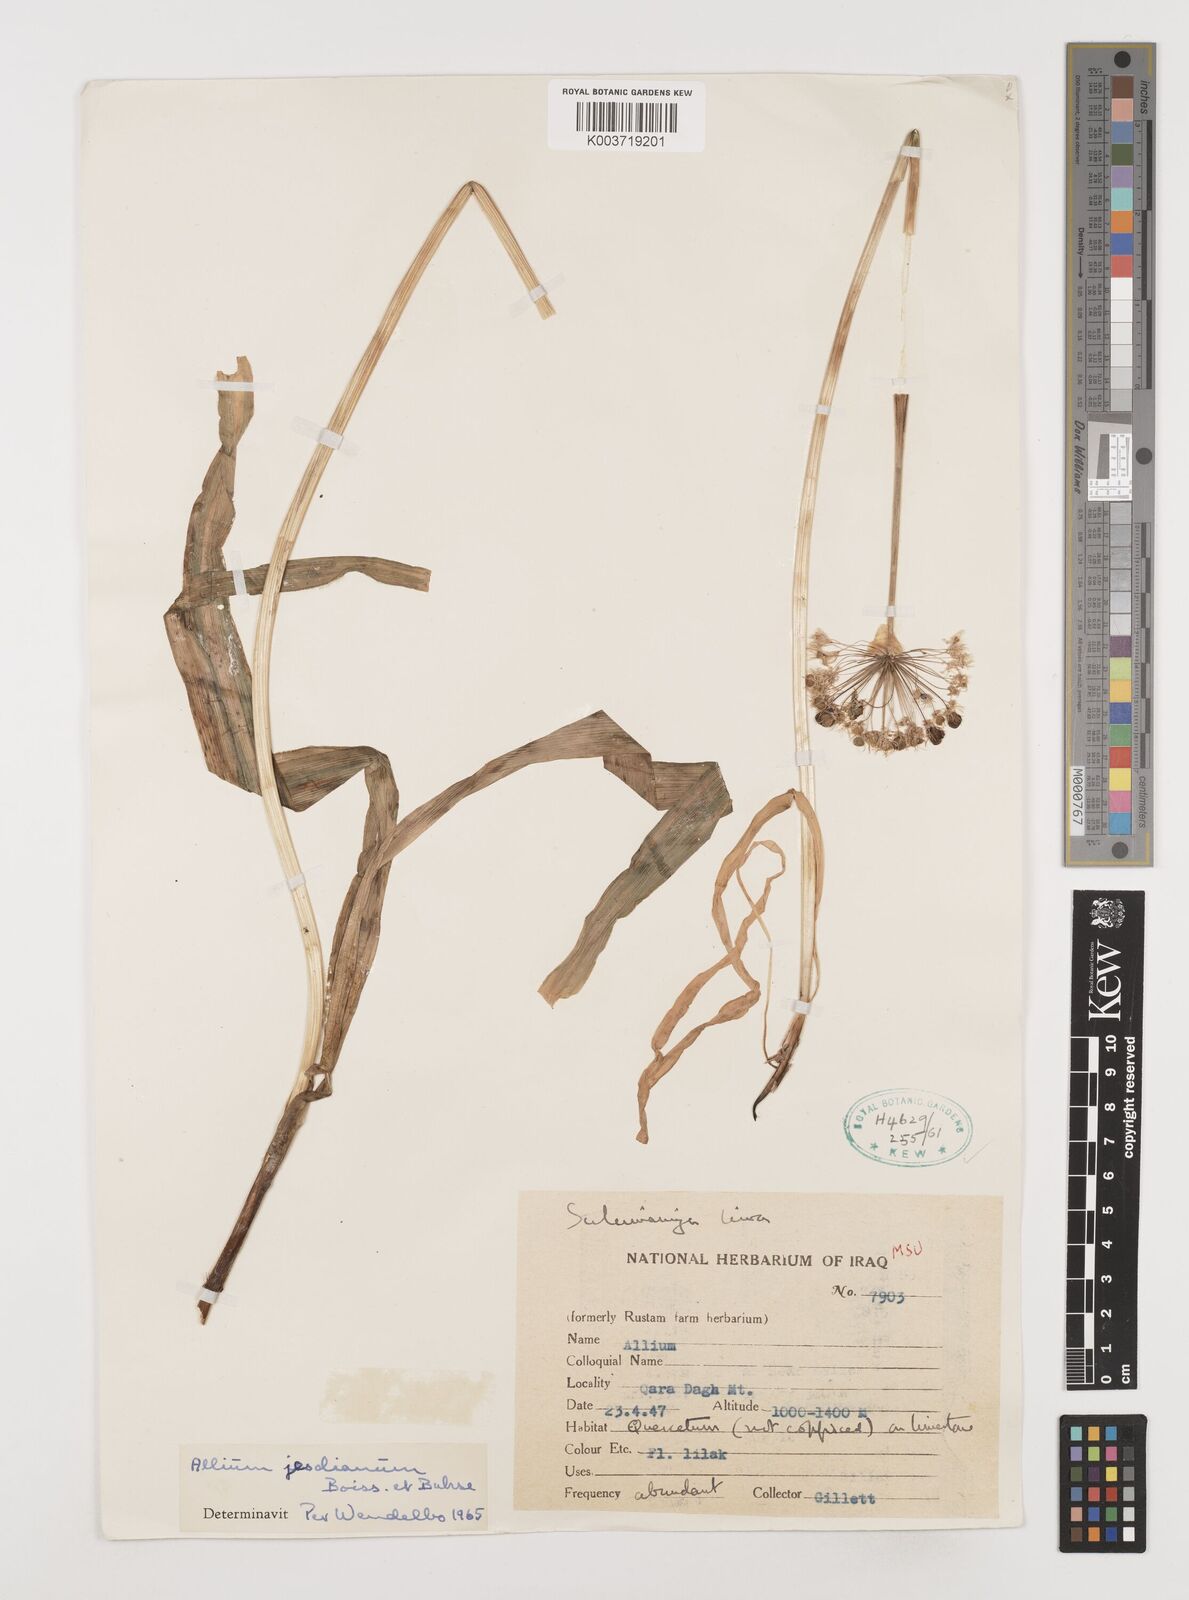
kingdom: Plantae
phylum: Tracheophyta
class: Liliopsida
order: Asparagales
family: Amaryllidaceae
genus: Allium
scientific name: Allium jesdianum
